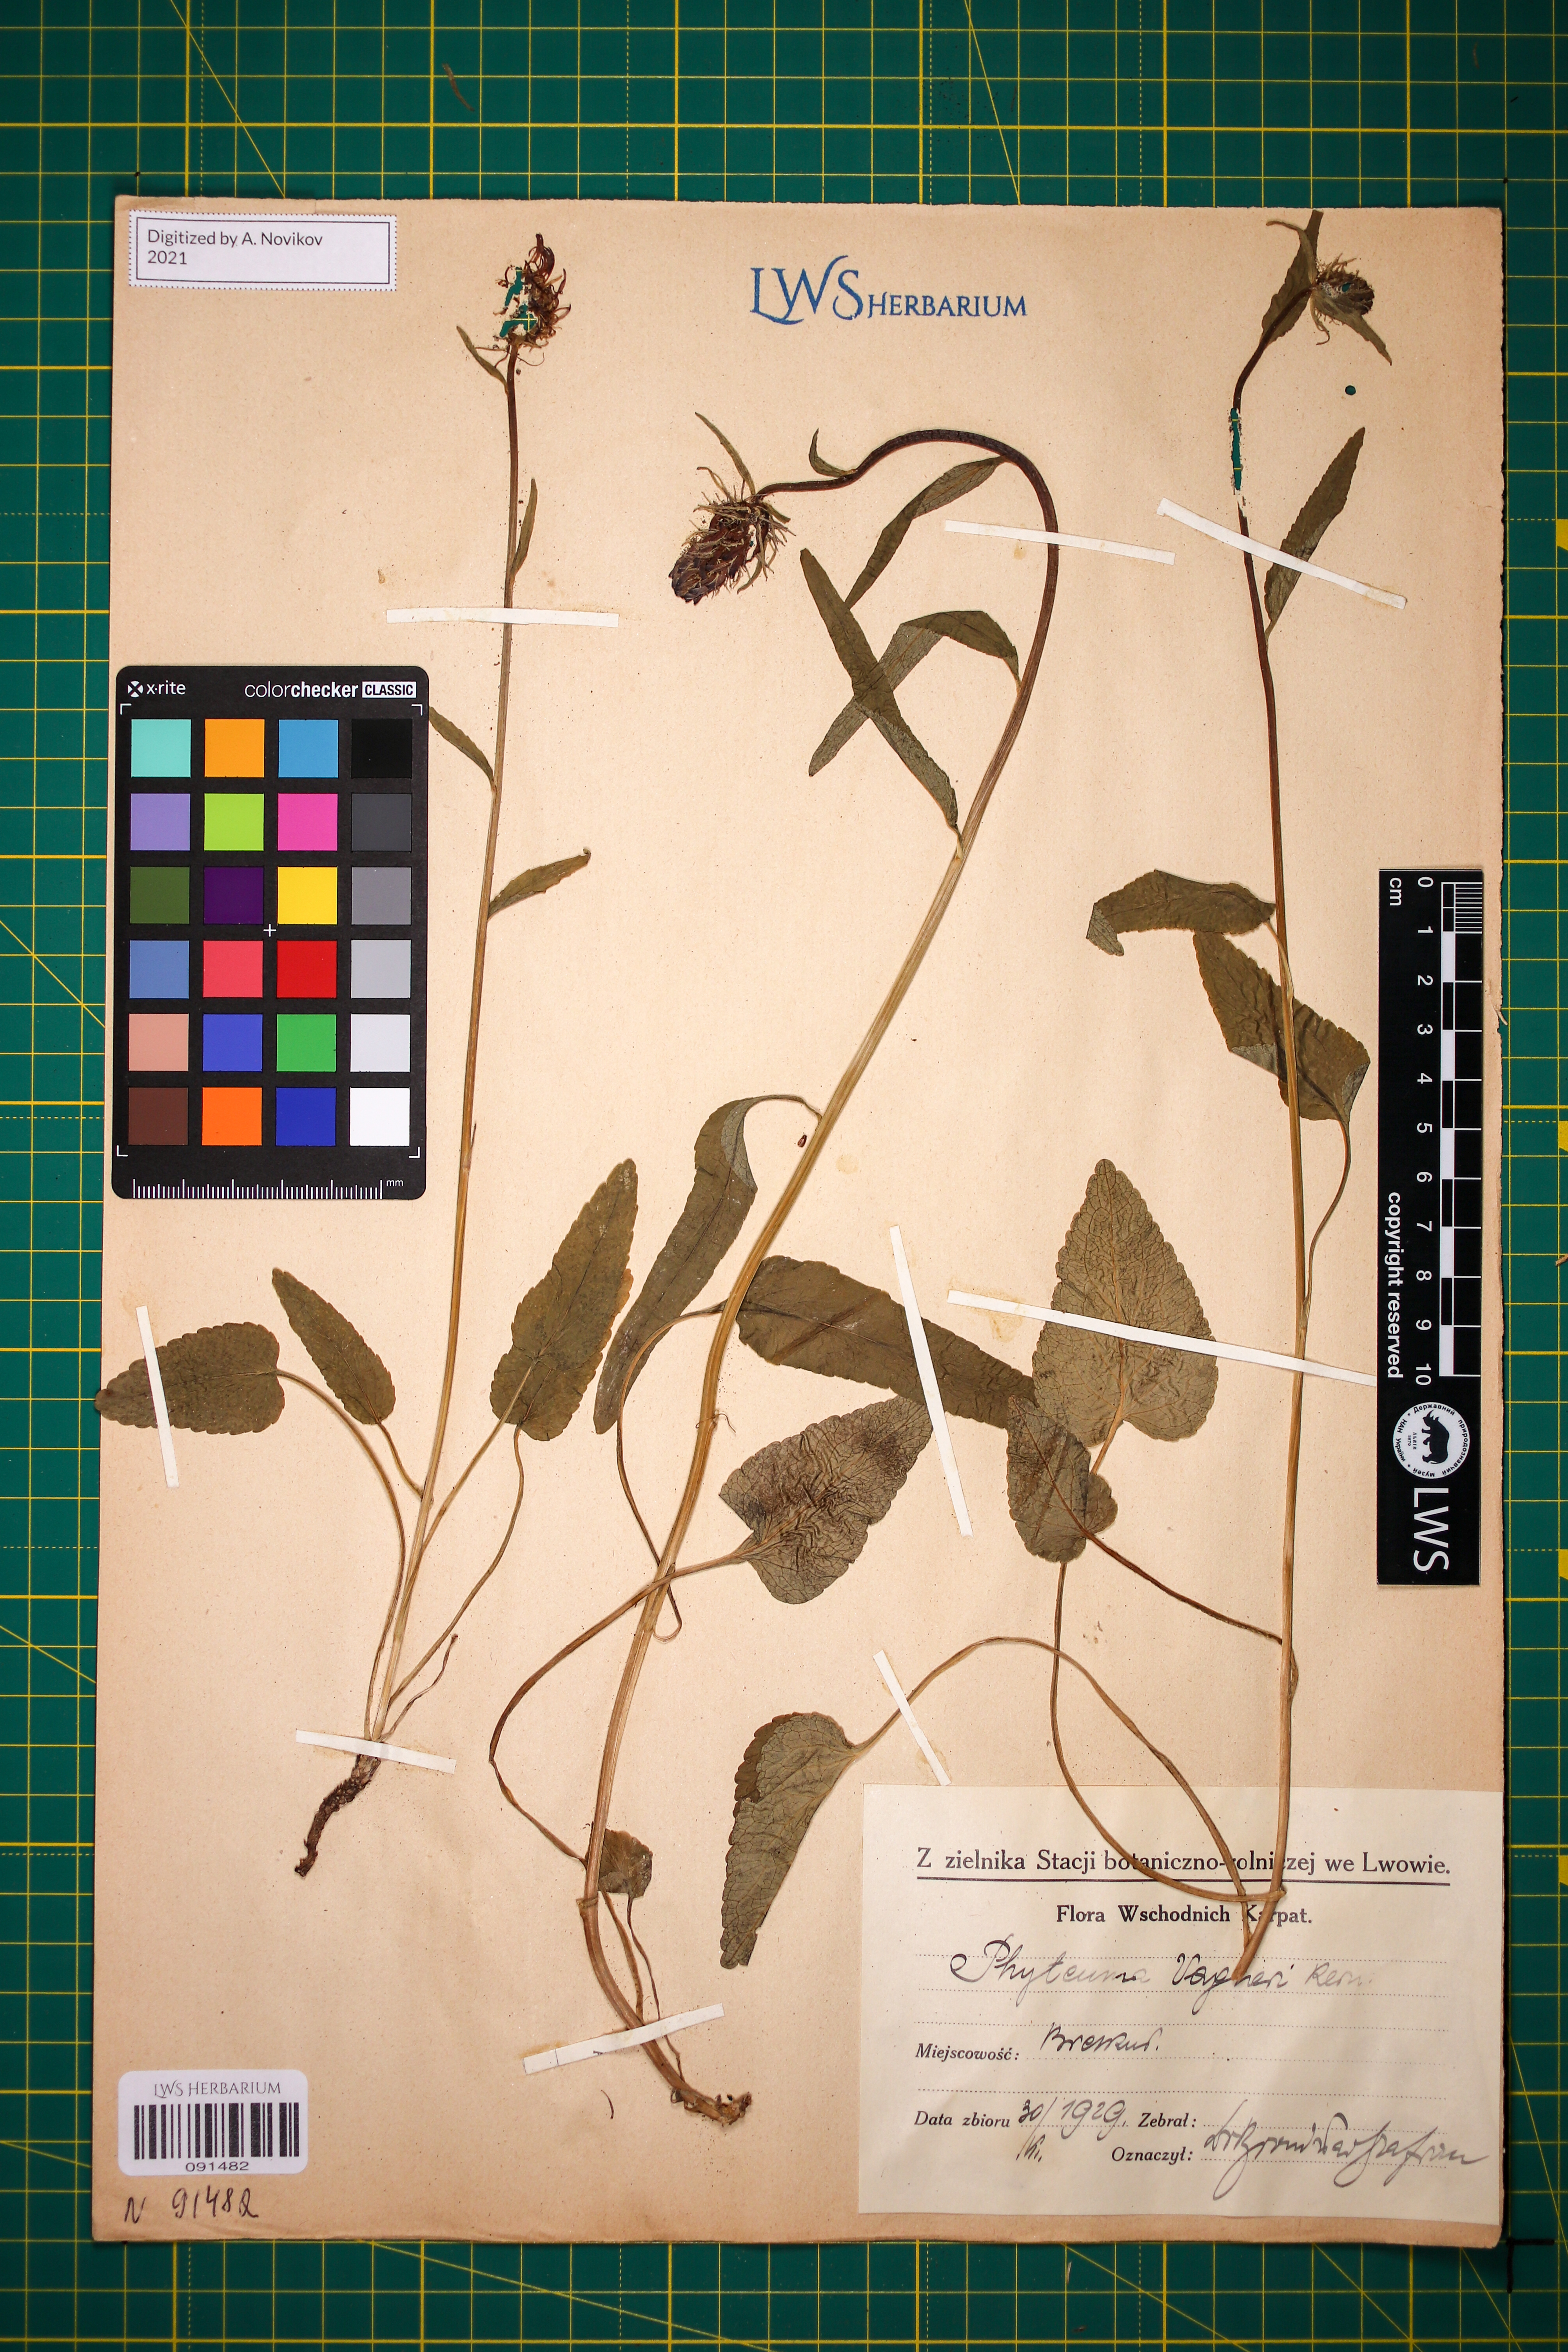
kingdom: Plantae
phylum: Tracheophyta
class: Magnoliopsida
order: Asterales
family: Campanulaceae
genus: Phyteuma
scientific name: Phyteuma vagneri
